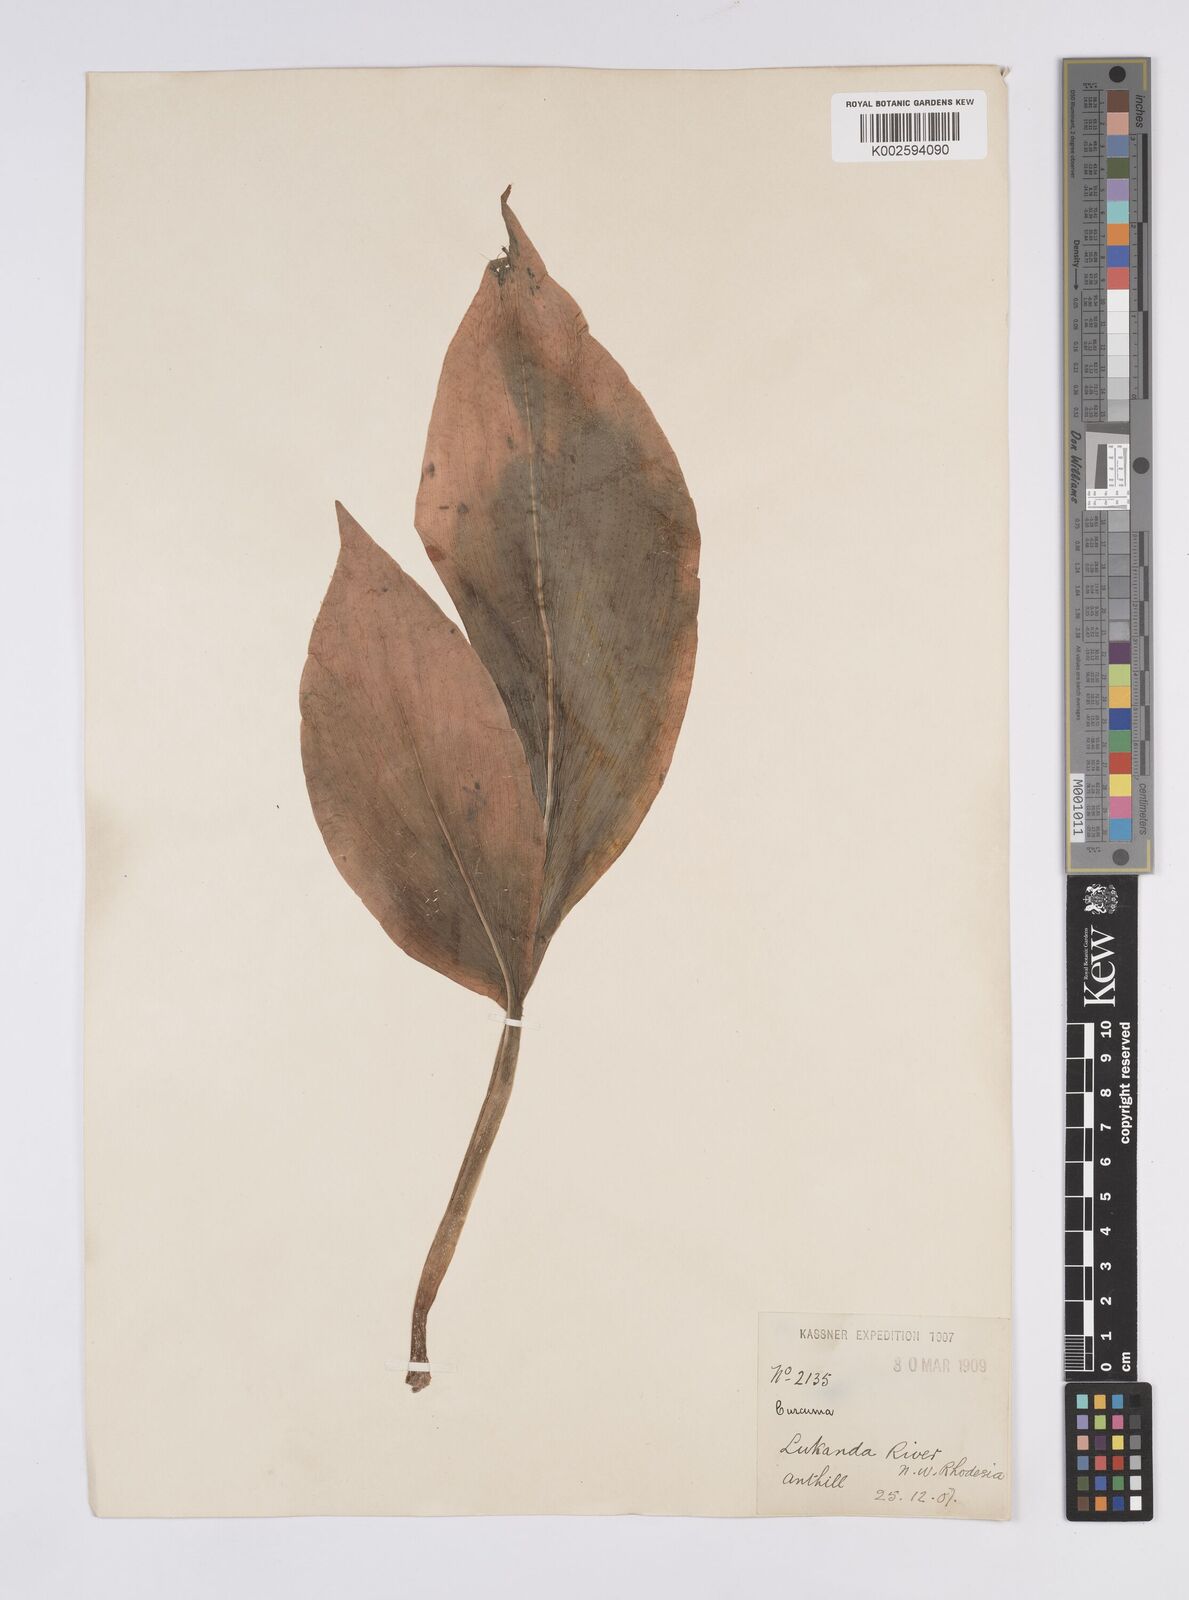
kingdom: Plantae
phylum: Tracheophyta
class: Liliopsida
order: Zingiberales
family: Zingiberaceae
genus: Curcuma
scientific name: Curcuma
